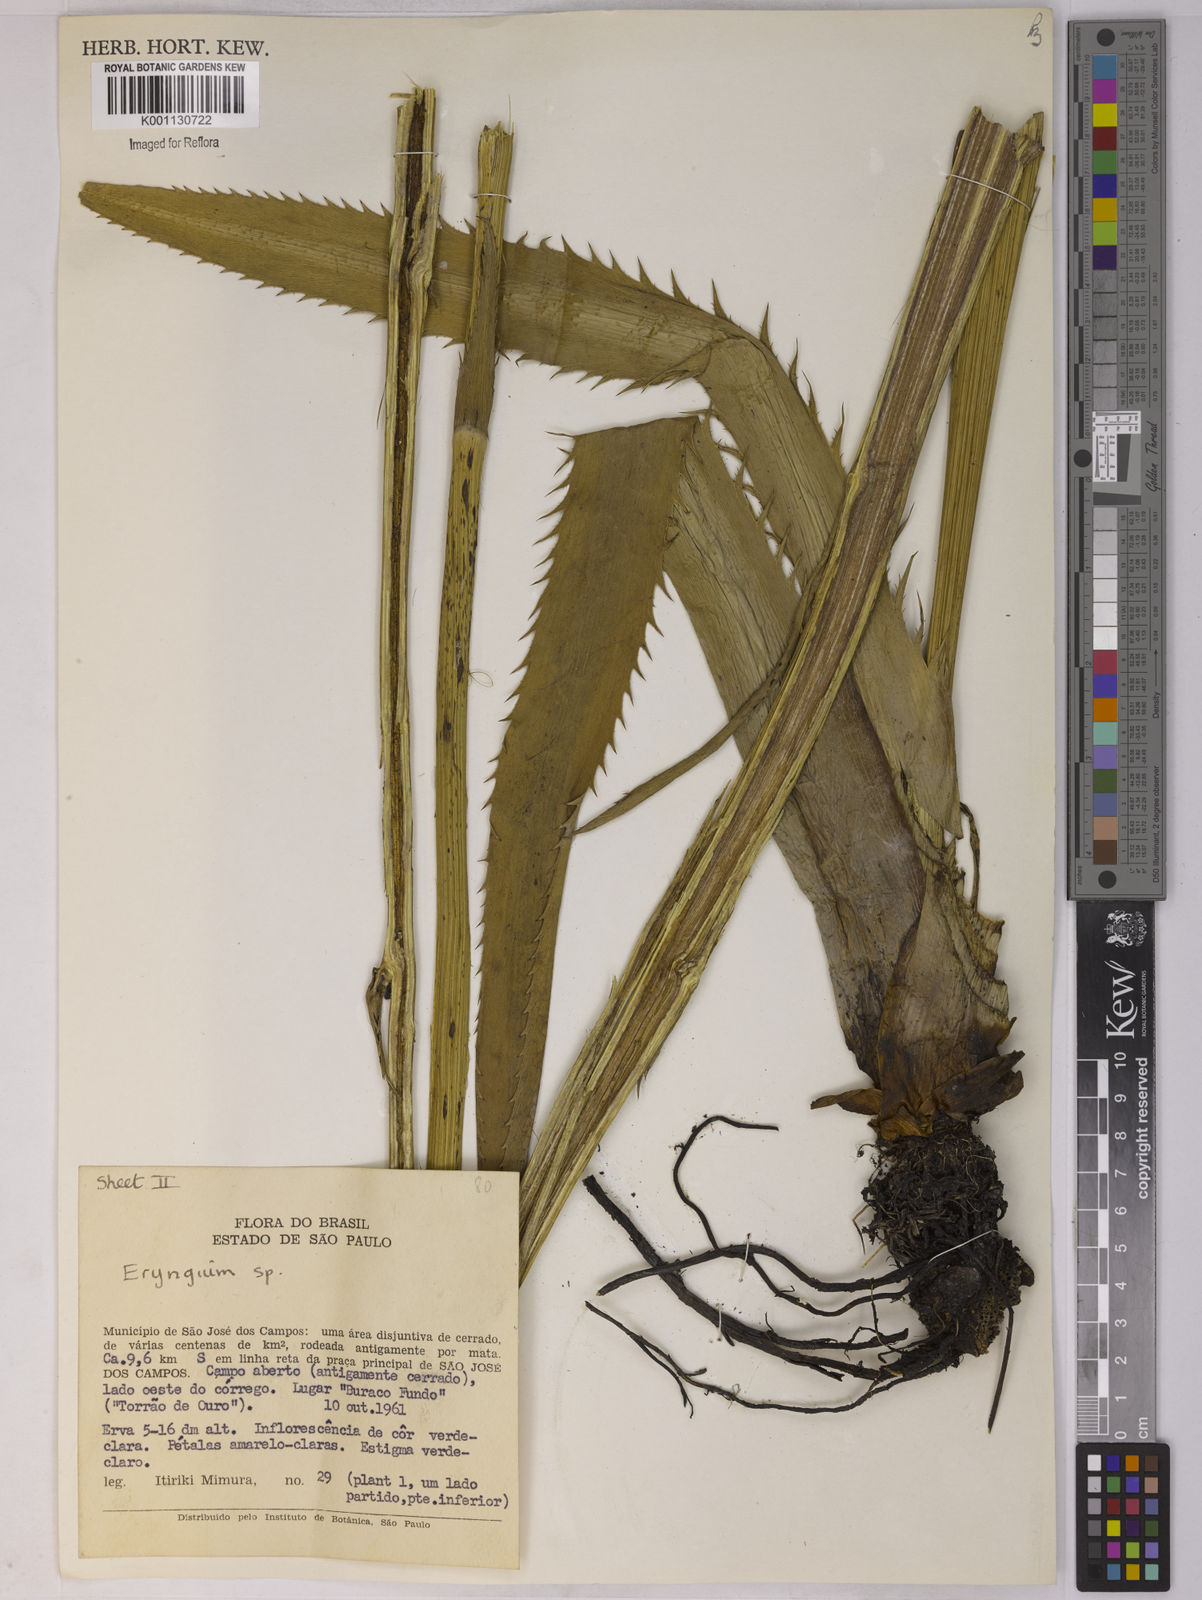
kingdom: Plantae
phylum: Tracheophyta
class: Magnoliopsida
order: Apiales
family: Apiaceae
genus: Eryngium
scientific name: Eryngium
